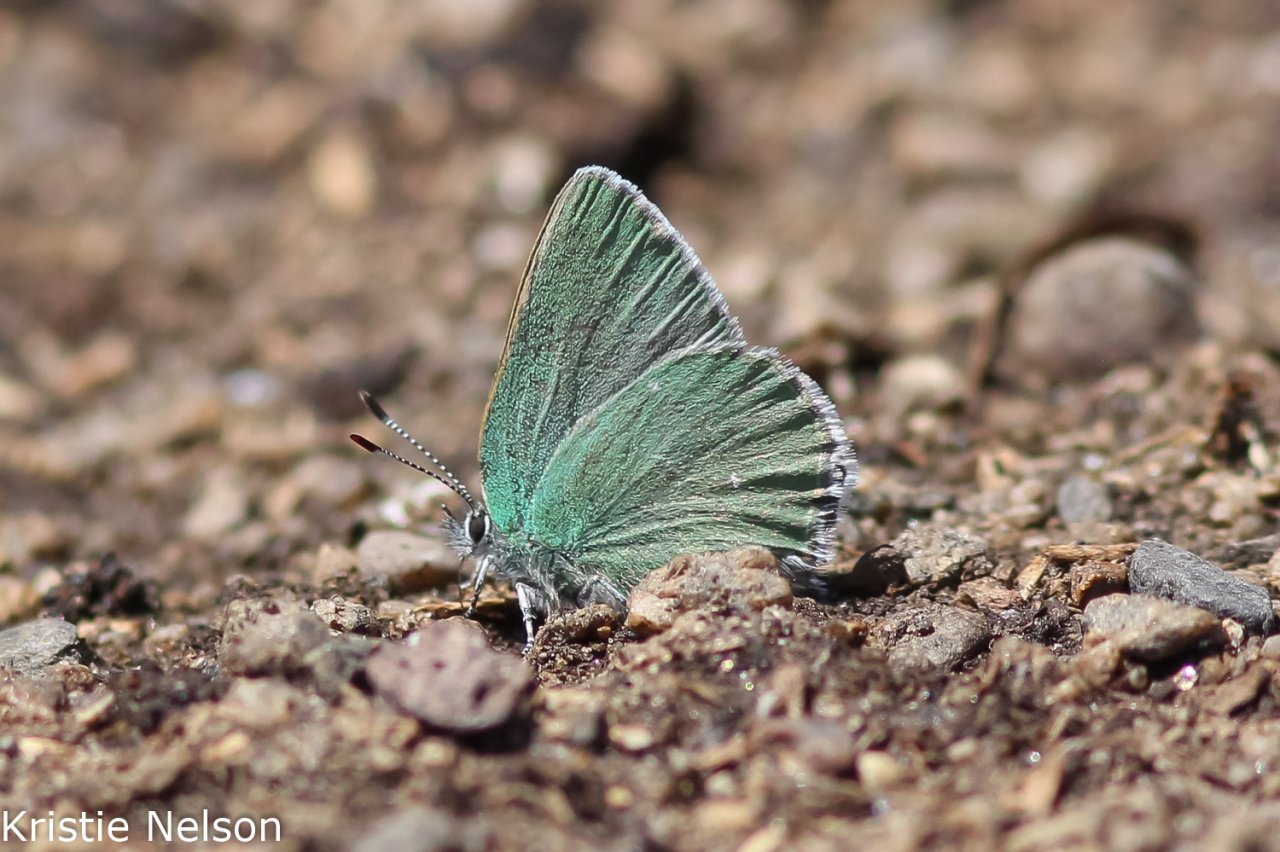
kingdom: Animalia
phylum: Arthropoda
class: Insecta
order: Lepidoptera
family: Lycaenidae
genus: Thecla
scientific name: Thecla sheridanii
